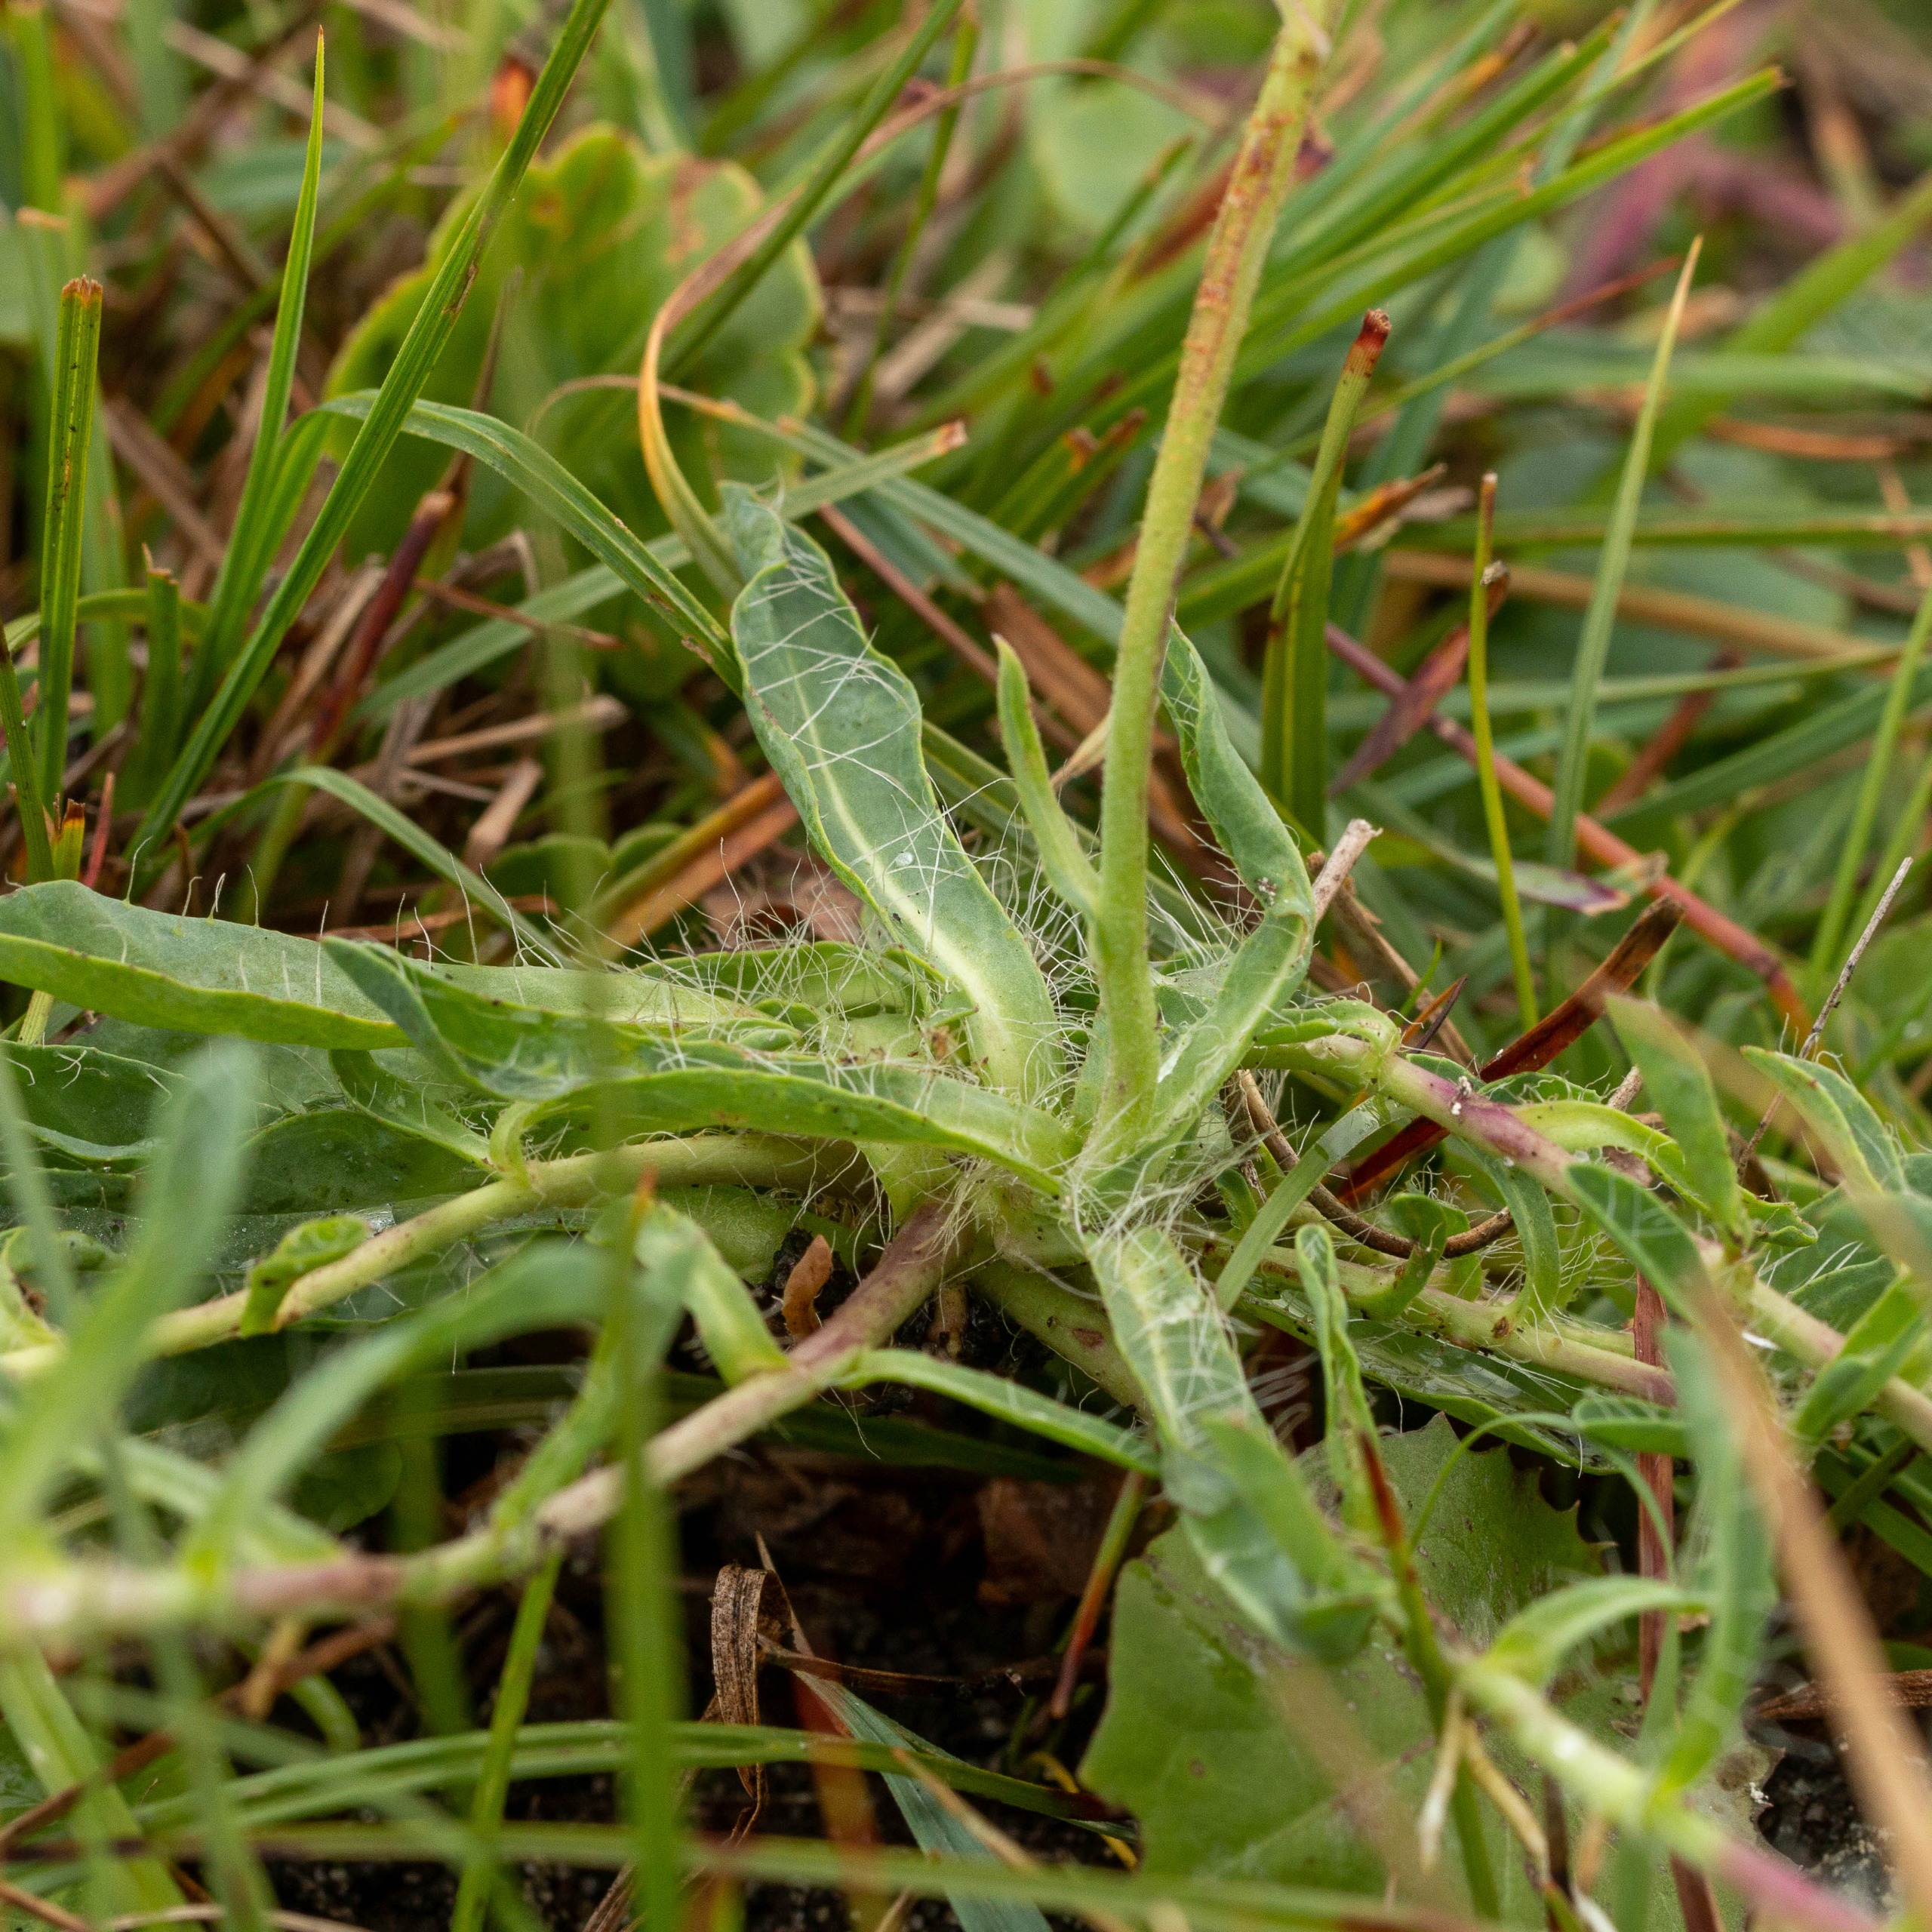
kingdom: Plantae
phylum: Tracheophyta
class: Magnoliopsida
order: Asterales
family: Asteraceae
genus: Pilosella
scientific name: Pilosella lactucella
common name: Lancetbladet høgeurt
